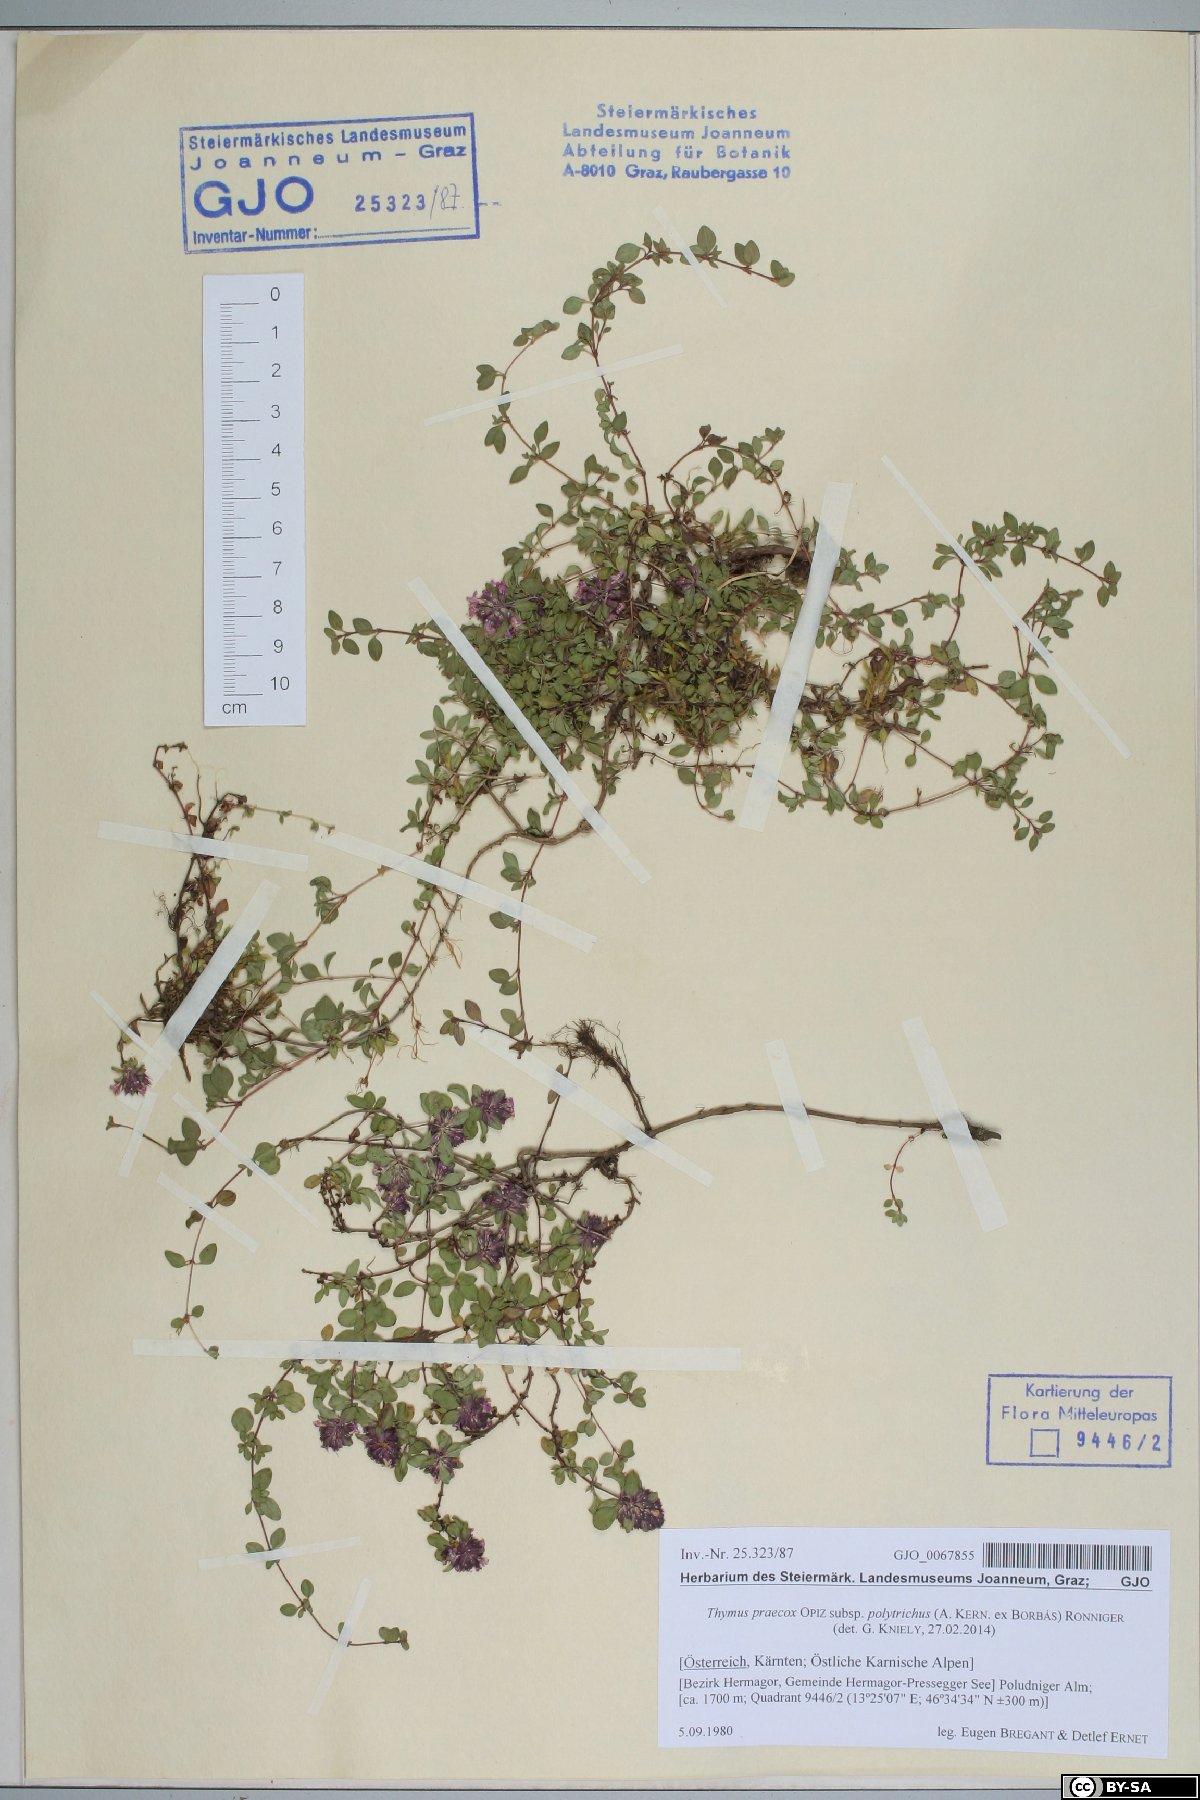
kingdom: Plantae
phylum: Tracheophyta
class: Magnoliopsida
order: Lamiales
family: Lamiaceae
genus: Thymus
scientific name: Thymus praecox
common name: Wild thyme
